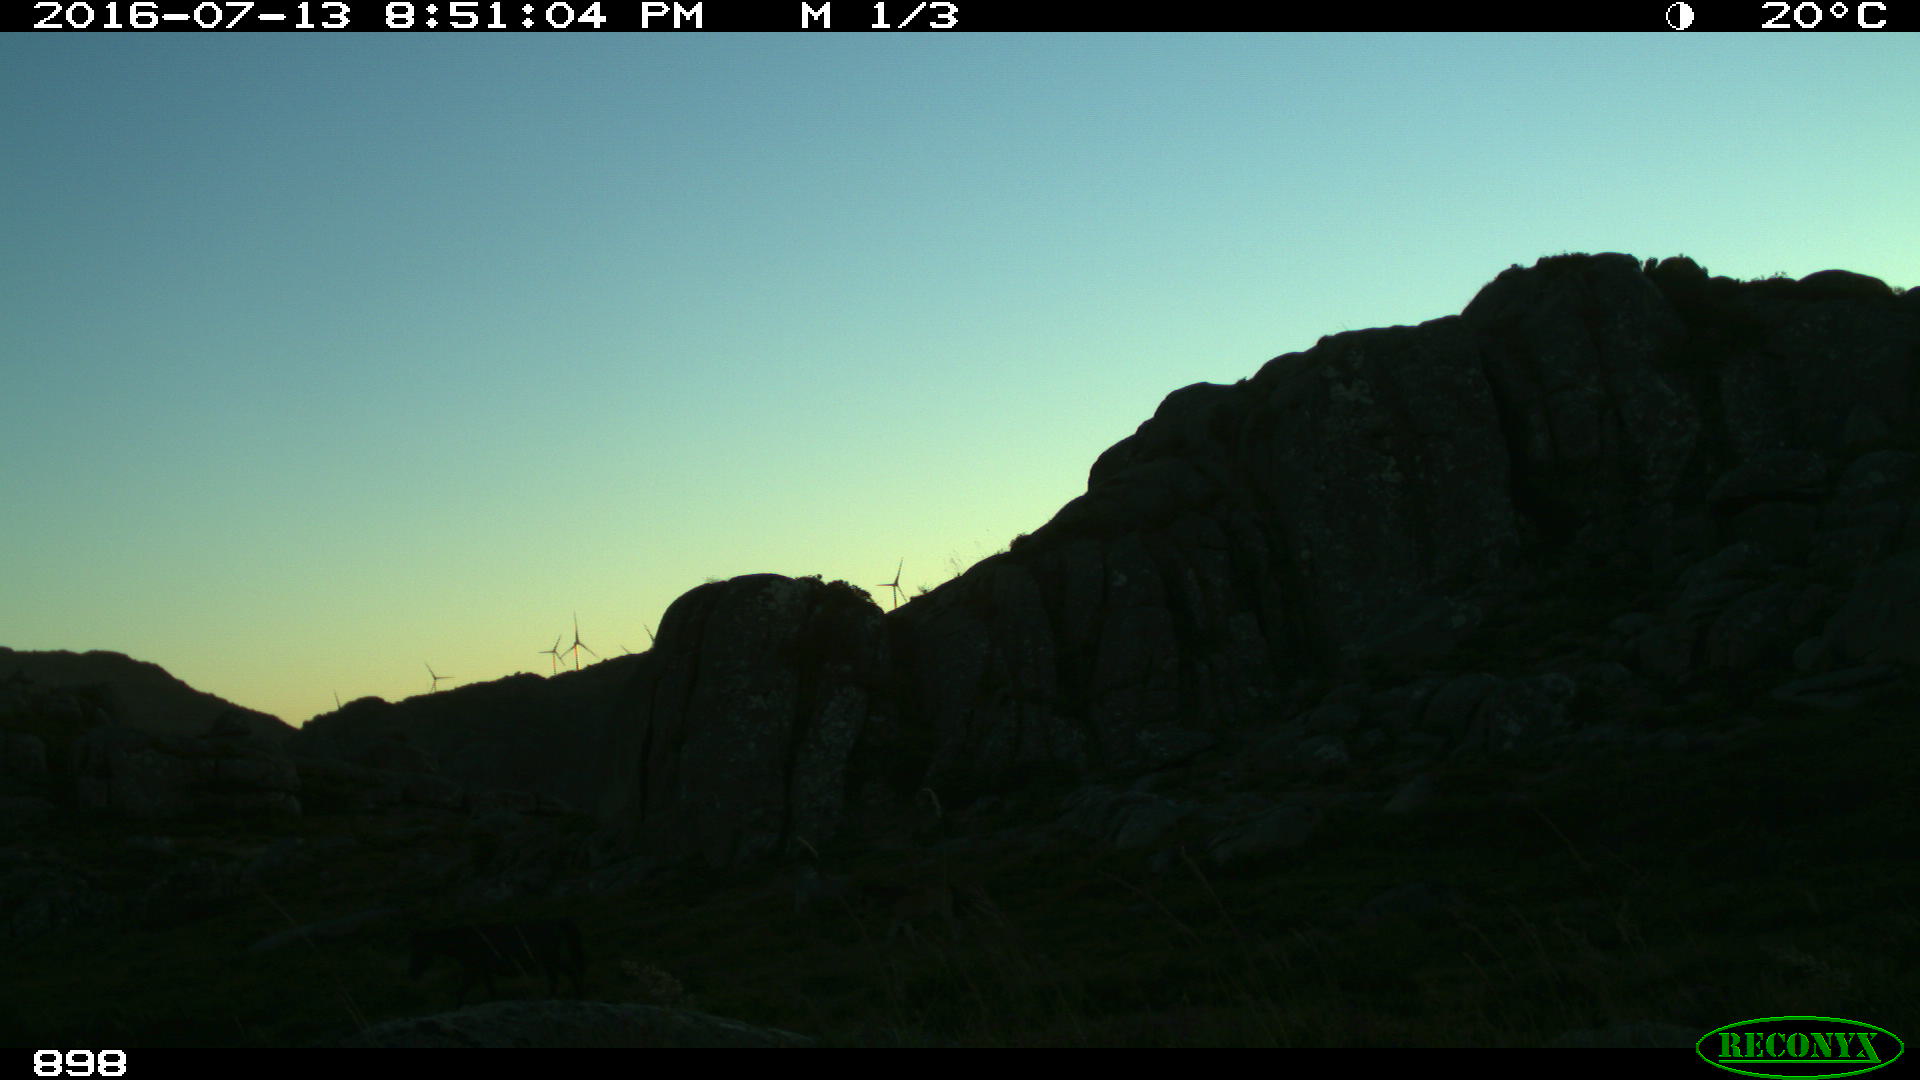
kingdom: Animalia
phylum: Chordata
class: Mammalia
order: Perissodactyla
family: Equidae
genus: Equus
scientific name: Equus caballus
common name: Horse
